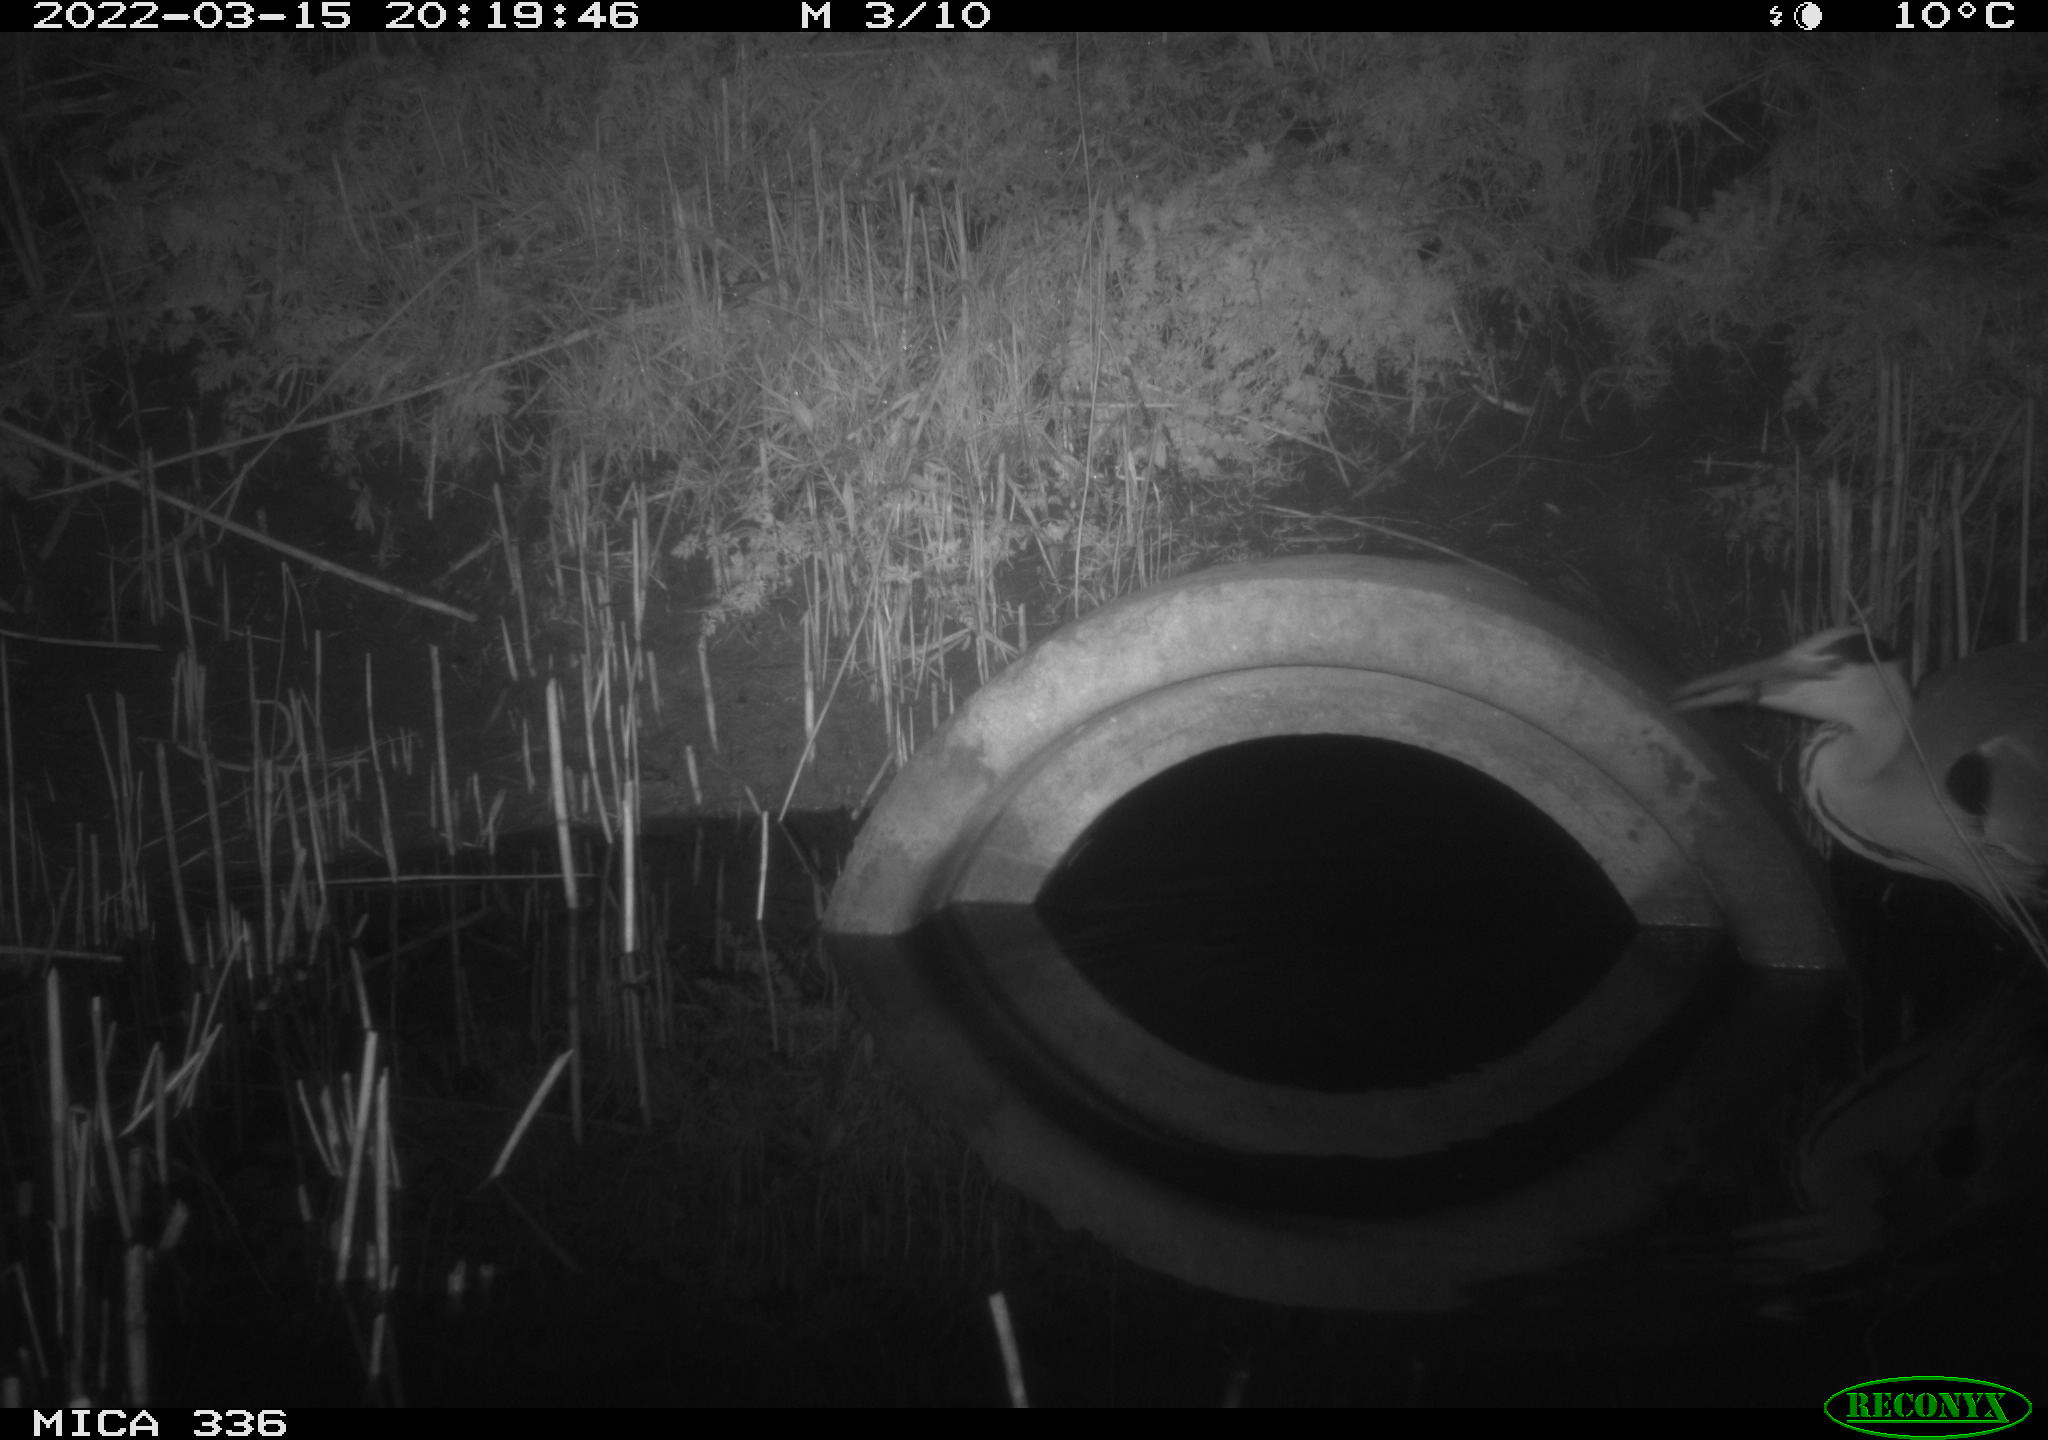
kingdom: Animalia
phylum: Chordata
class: Aves
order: Pelecaniformes
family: Ardeidae
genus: Ardea
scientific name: Ardea cinerea
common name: Grey heron
